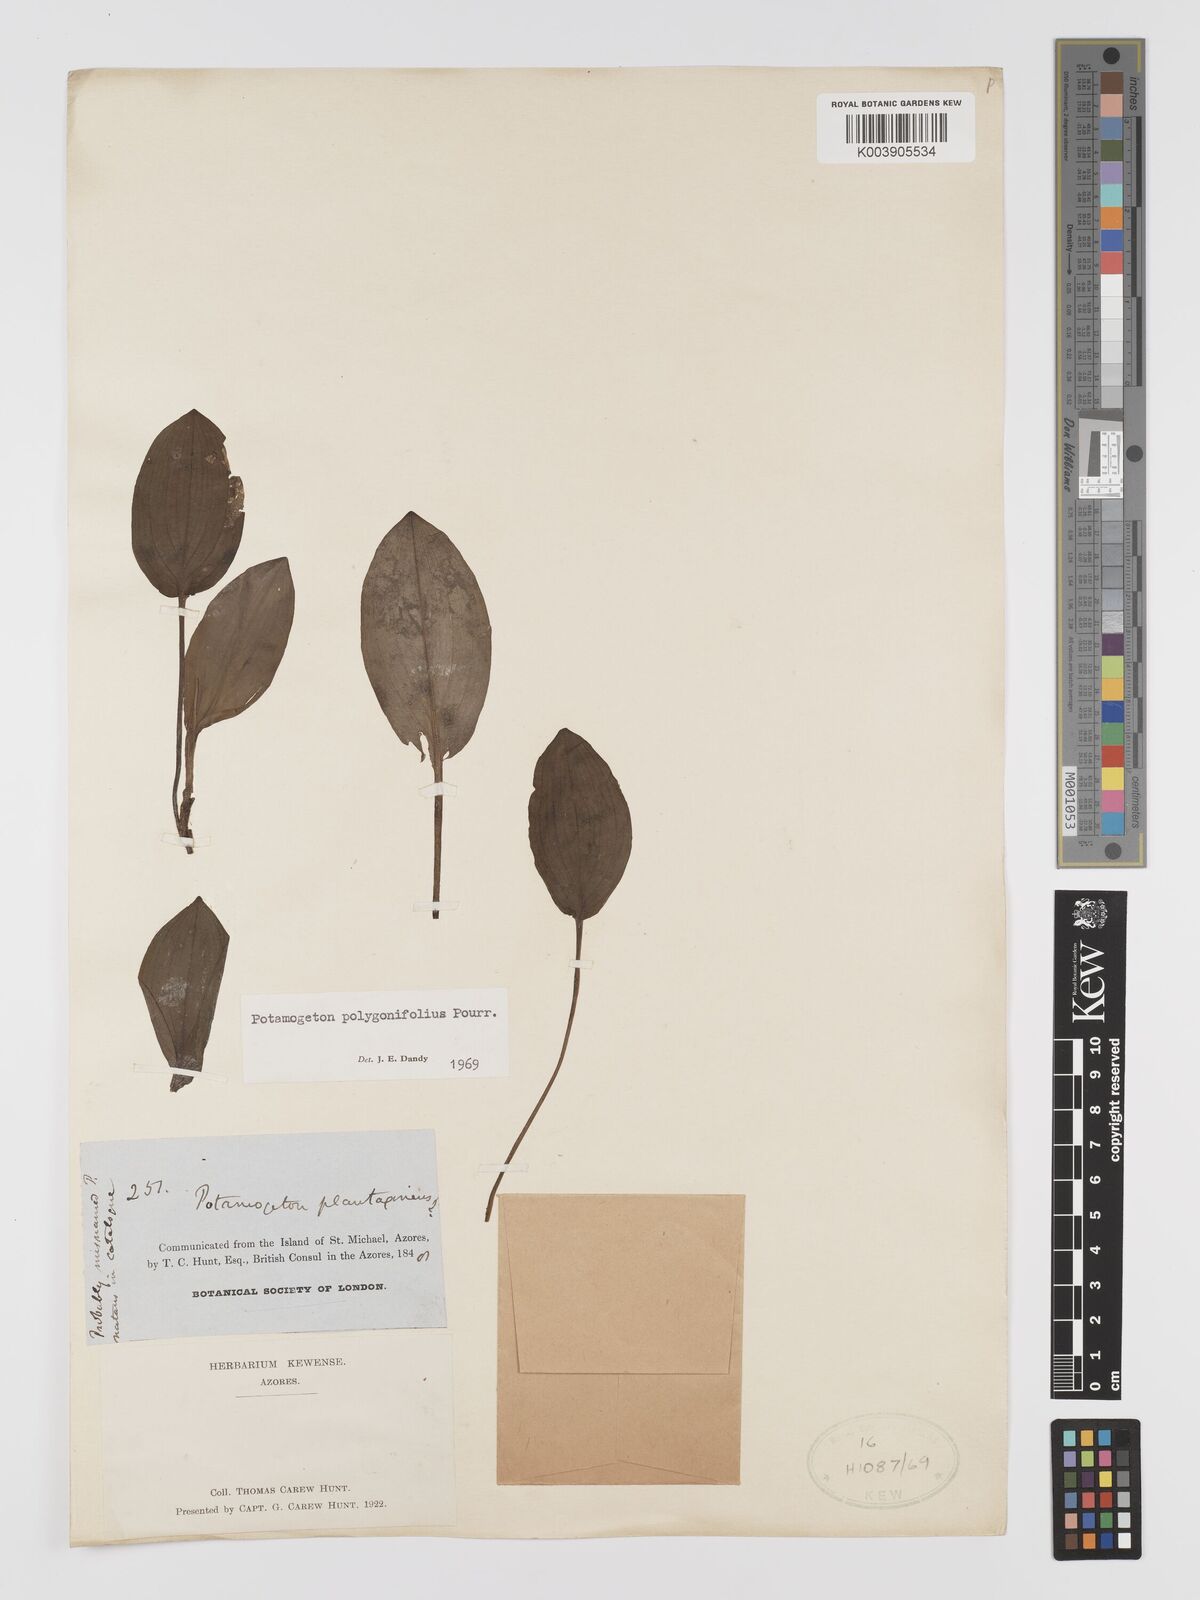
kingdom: Plantae
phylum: Tracheophyta
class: Liliopsida
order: Alismatales
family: Potamogetonaceae
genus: Potamogeton
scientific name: Potamogeton polygonifolius
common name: Bog pondweed
